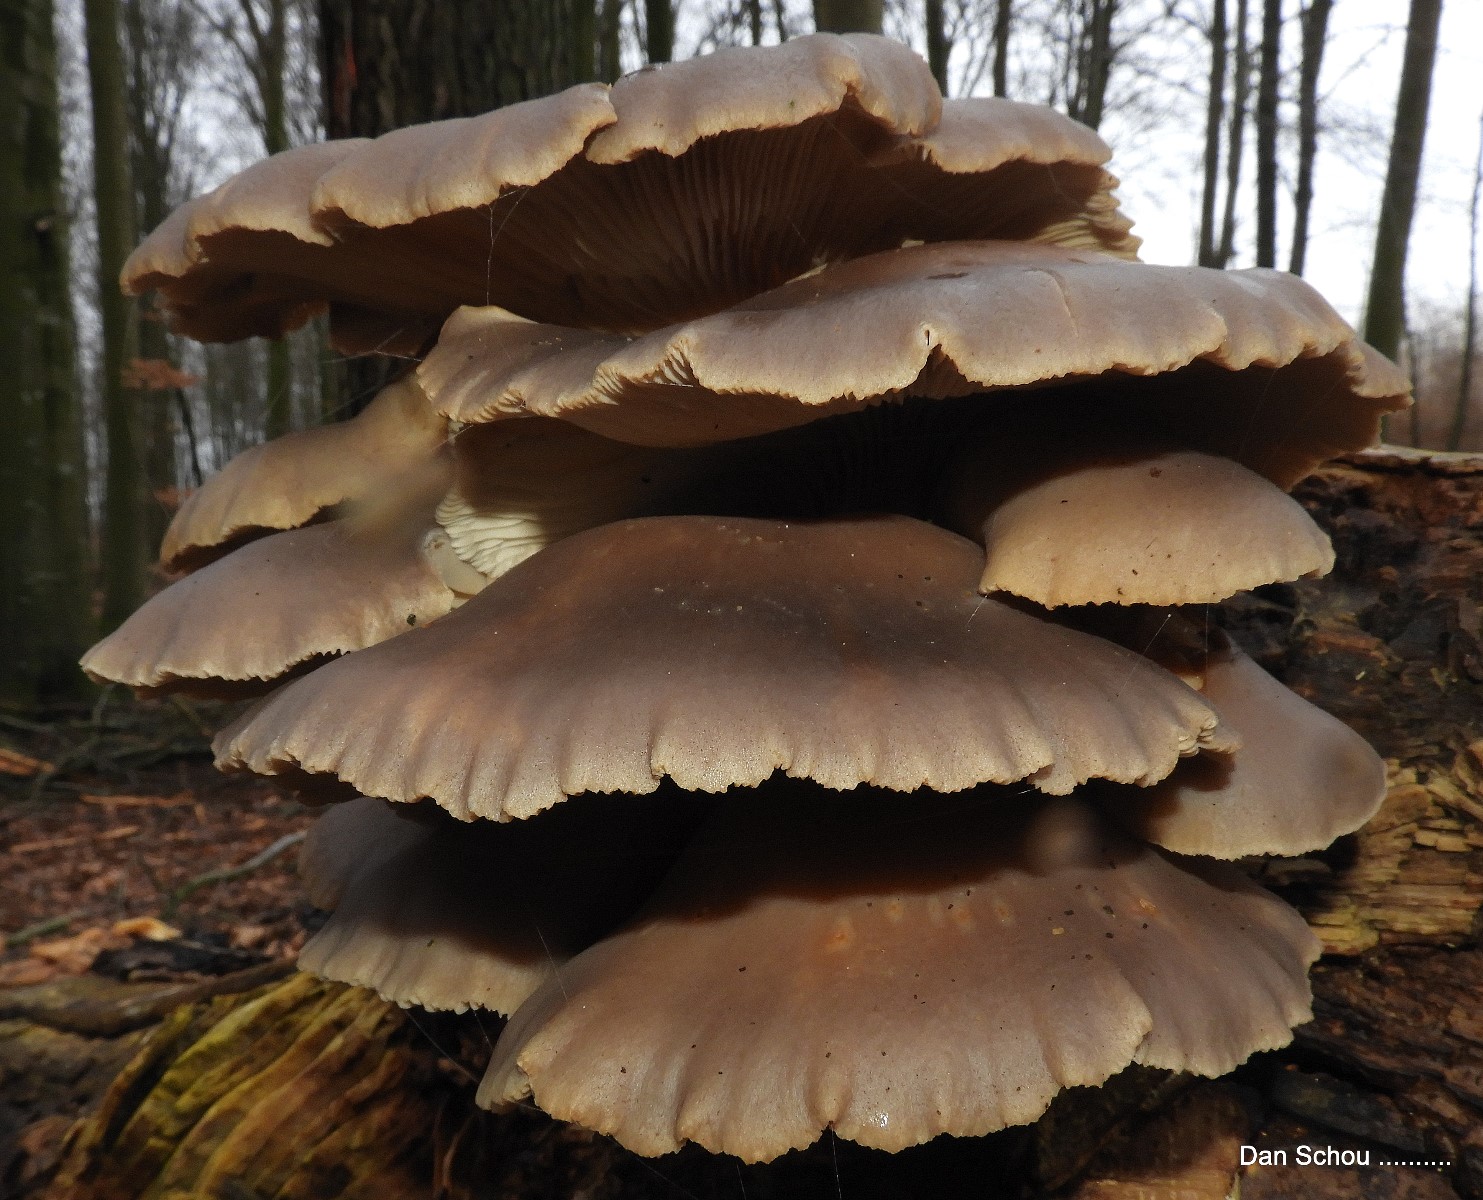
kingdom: Fungi
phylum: Basidiomycota
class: Agaricomycetes
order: Agaricales
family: Pleurotaceae
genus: Pleurotus
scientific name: Pleurotus ostreatus
